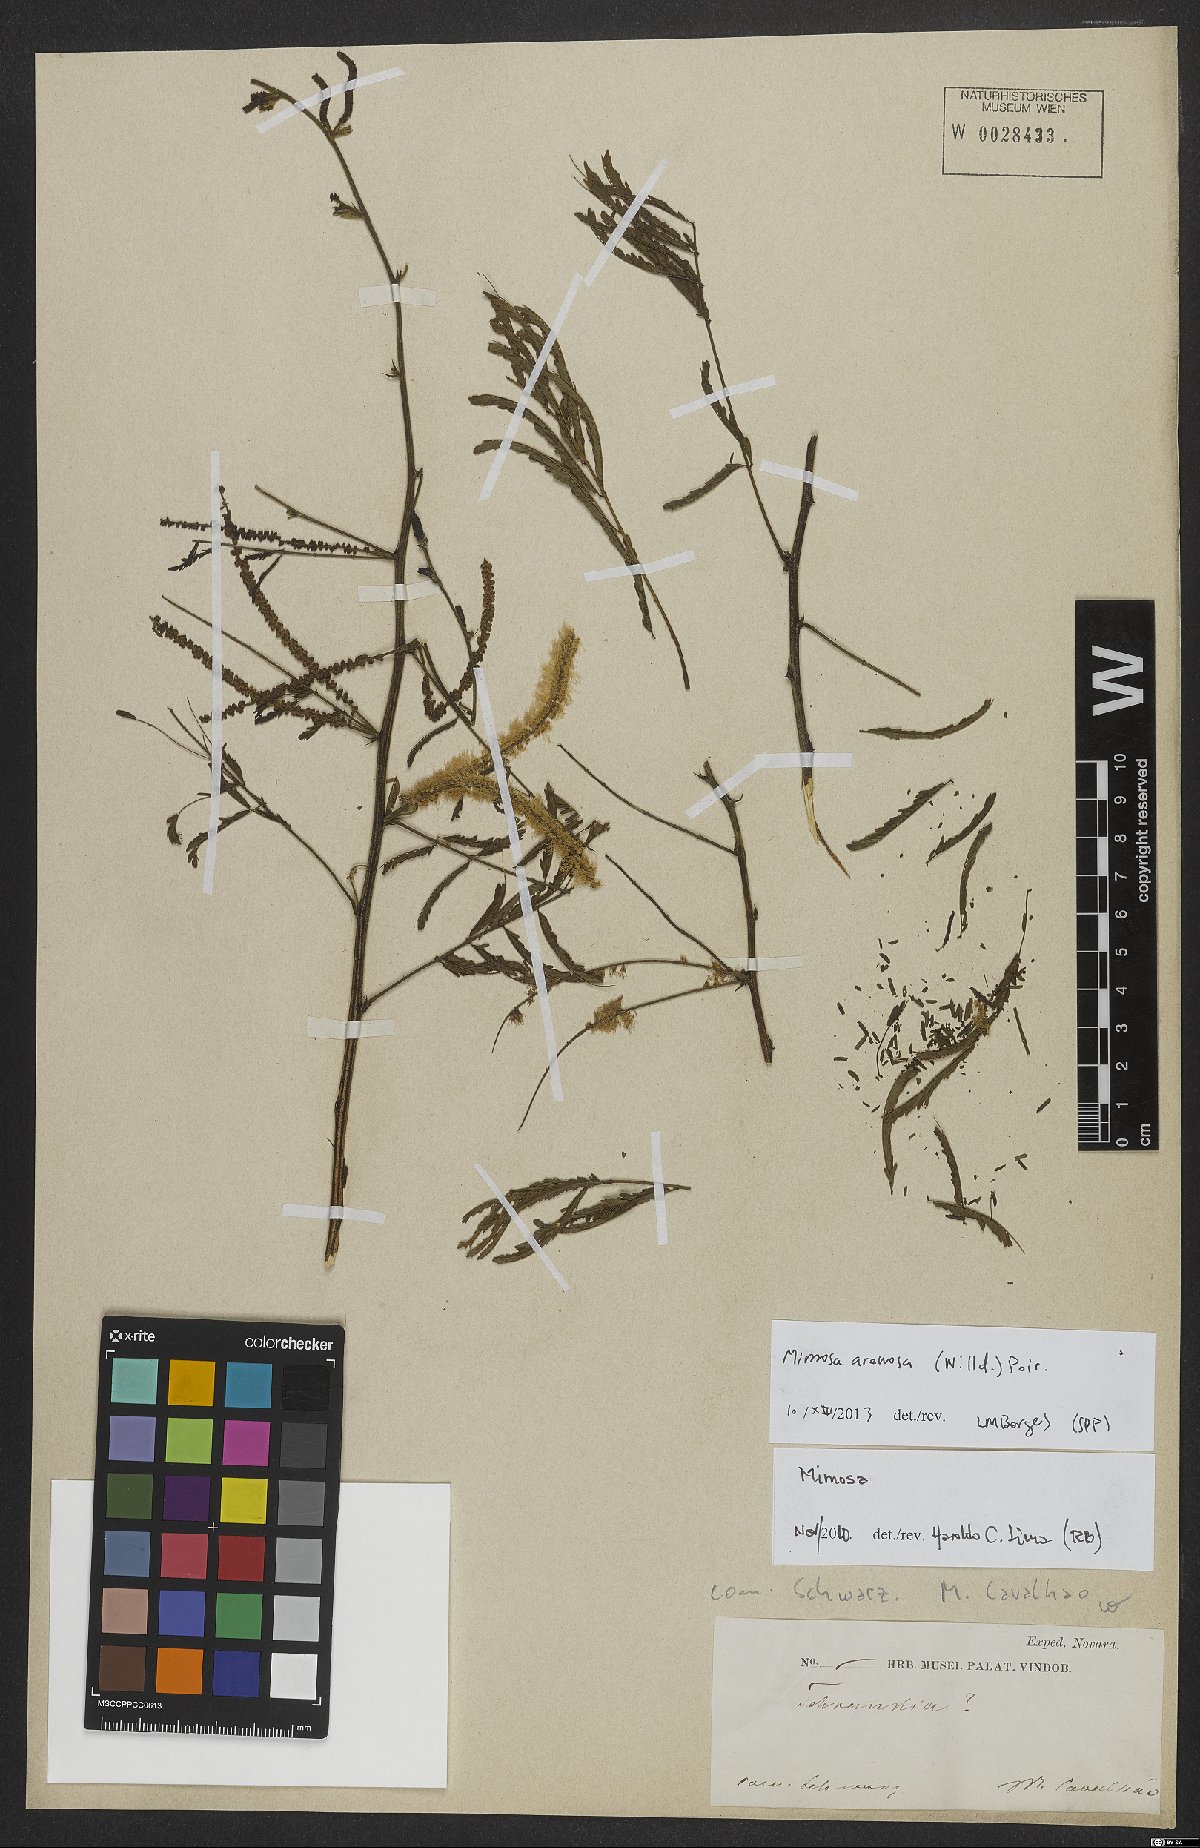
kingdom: Plantae
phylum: Tracheophyta
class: Magnoliopsida
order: Fabales
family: Fabaceae
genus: Mimosa
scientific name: Mimosa arenosa
